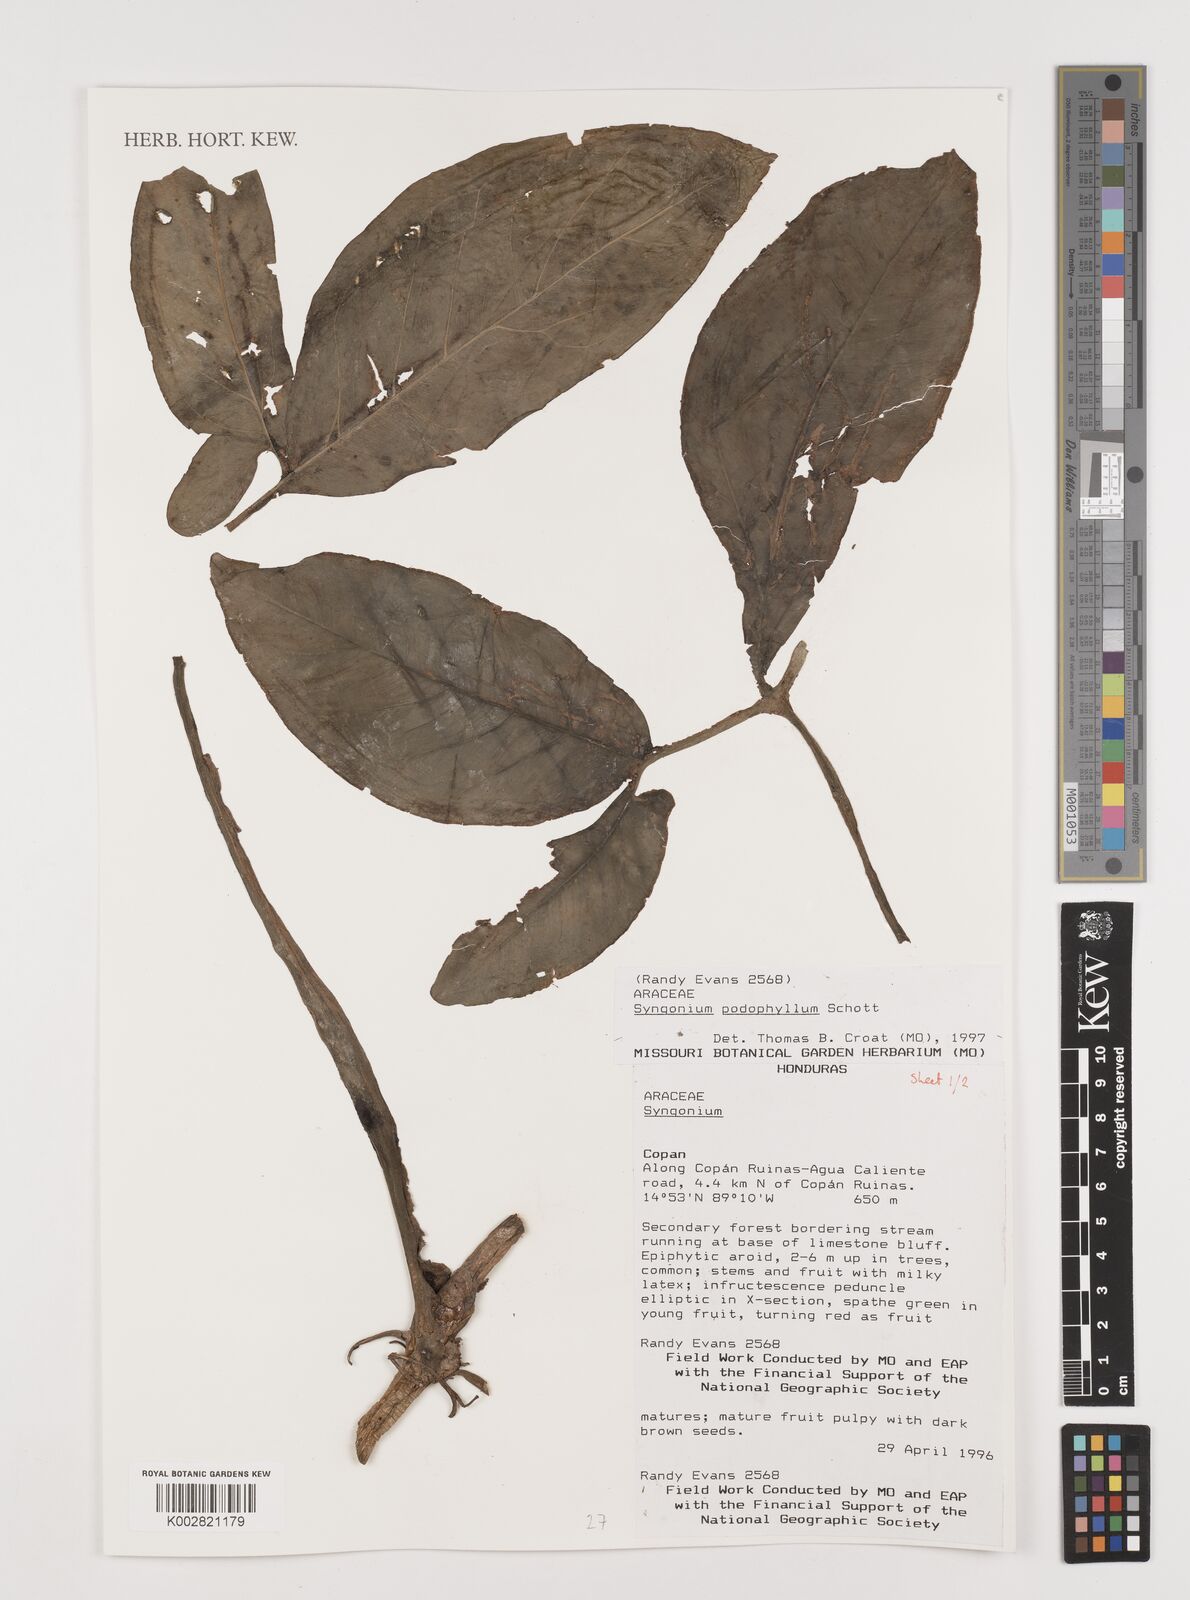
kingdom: Plantae
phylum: Tracheophyta
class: Liliopsida
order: Alismatales
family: Araceae
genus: Syngonium
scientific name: Syngonium podophyllum
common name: American evergreen
